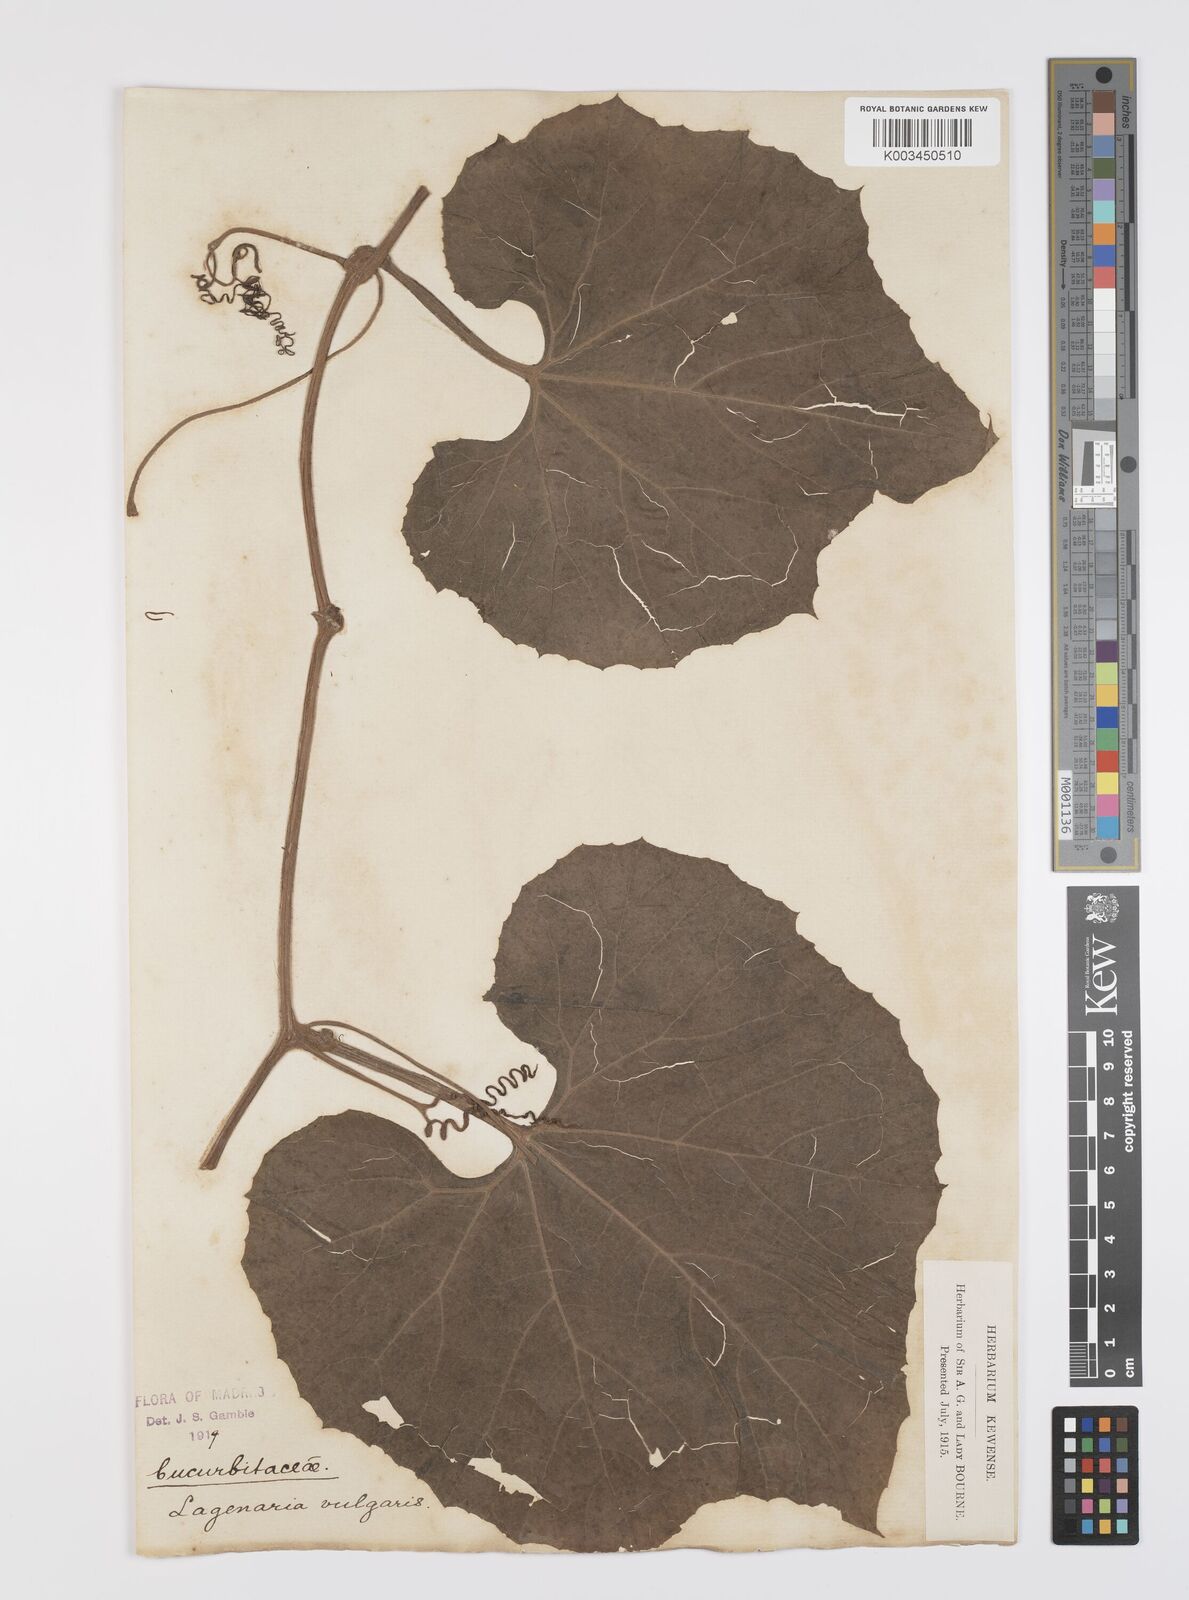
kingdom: Plantae
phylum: Tracheophyta
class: Magnoliopsida
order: Cucurbitales
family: Cucurbitaceae
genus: Lagenaria
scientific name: Lagenaria siceraria
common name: Bottle gourd
